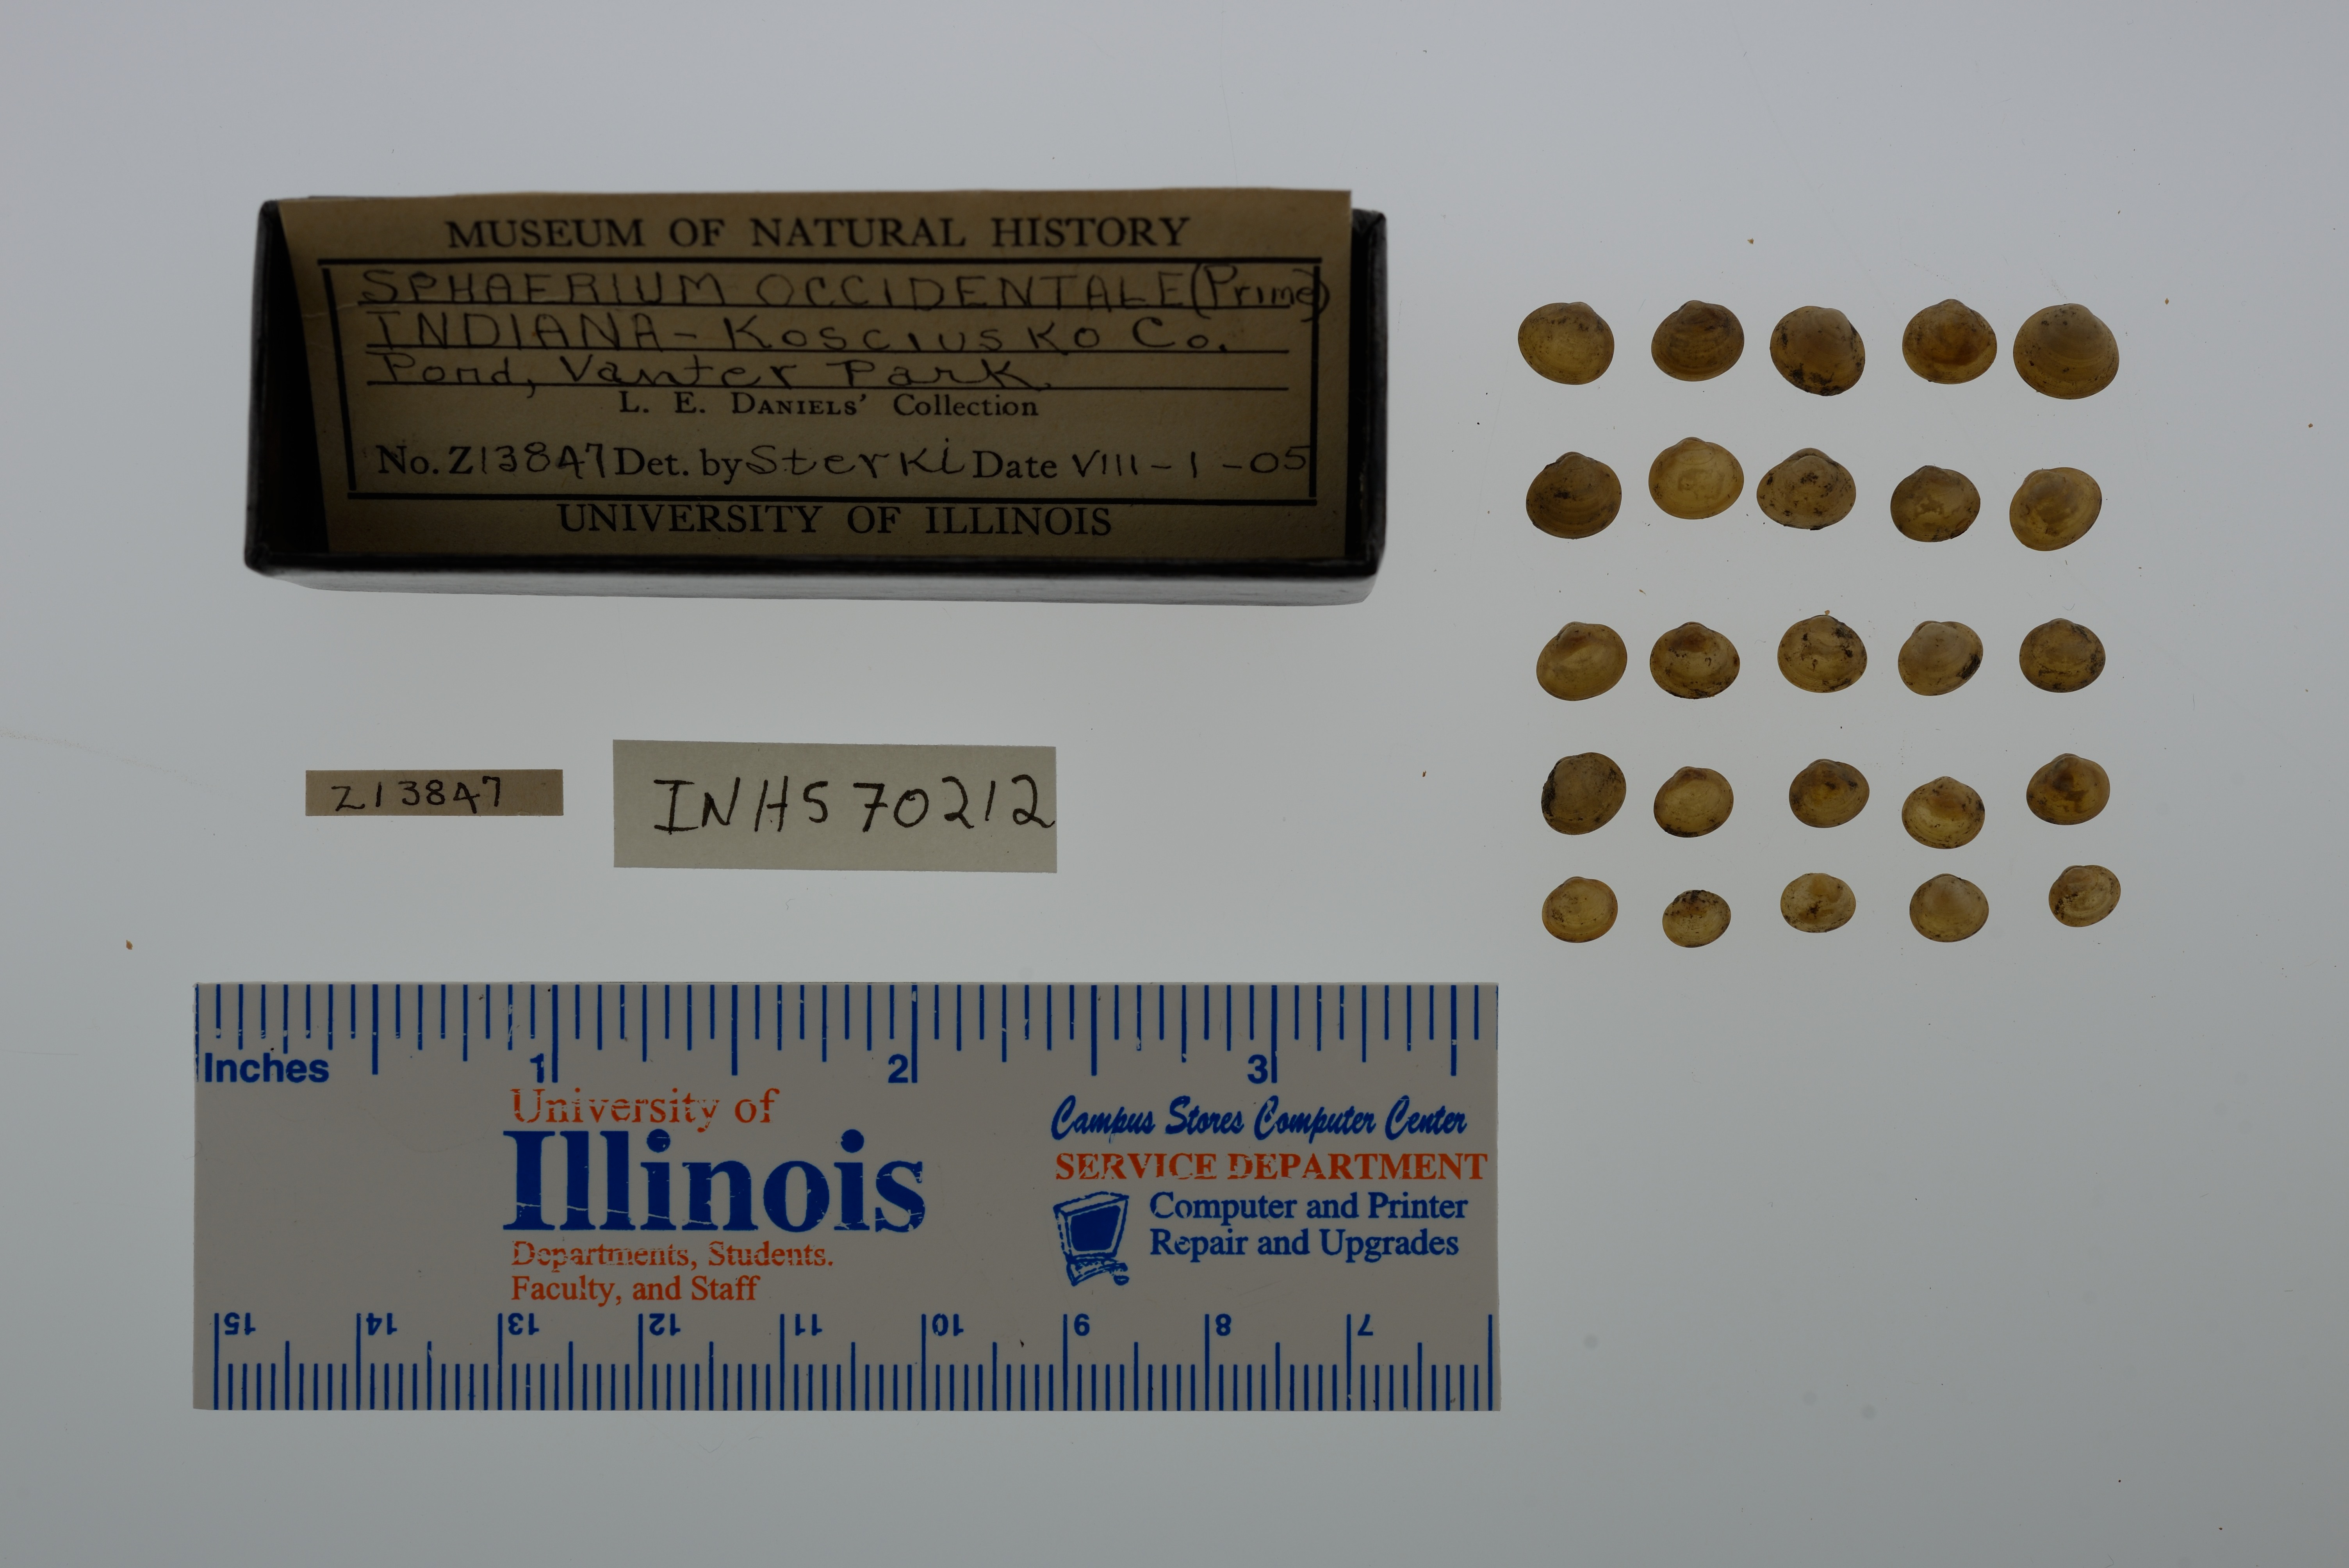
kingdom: Animalia
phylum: Mollusca
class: Bivalvia
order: Sphaeriida
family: Sphaeriidae
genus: Sphaerium
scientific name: Sphaerium occidentale
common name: Herrington fingernailclam
